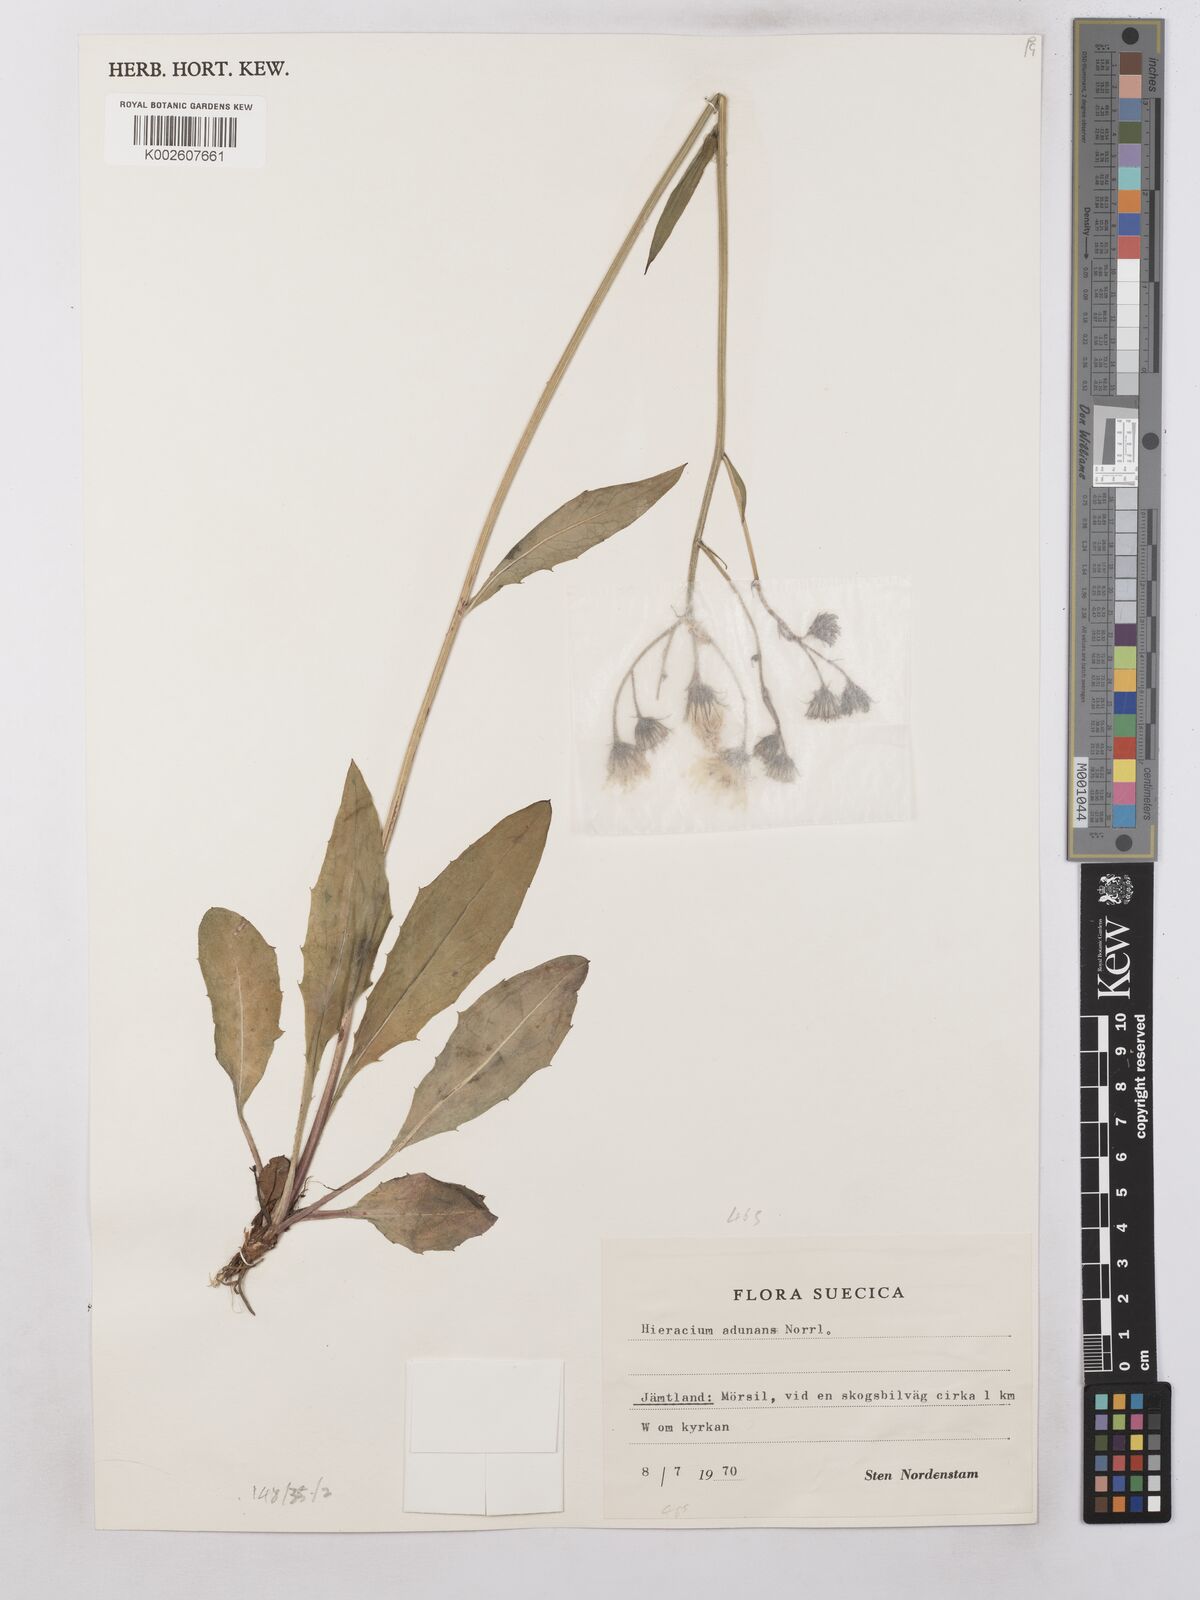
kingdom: Plantae
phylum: Tracheophyta
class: Magnoliopsida
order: Asterales
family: Asteraceae
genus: Hieracium
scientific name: Hieracium subramosum
